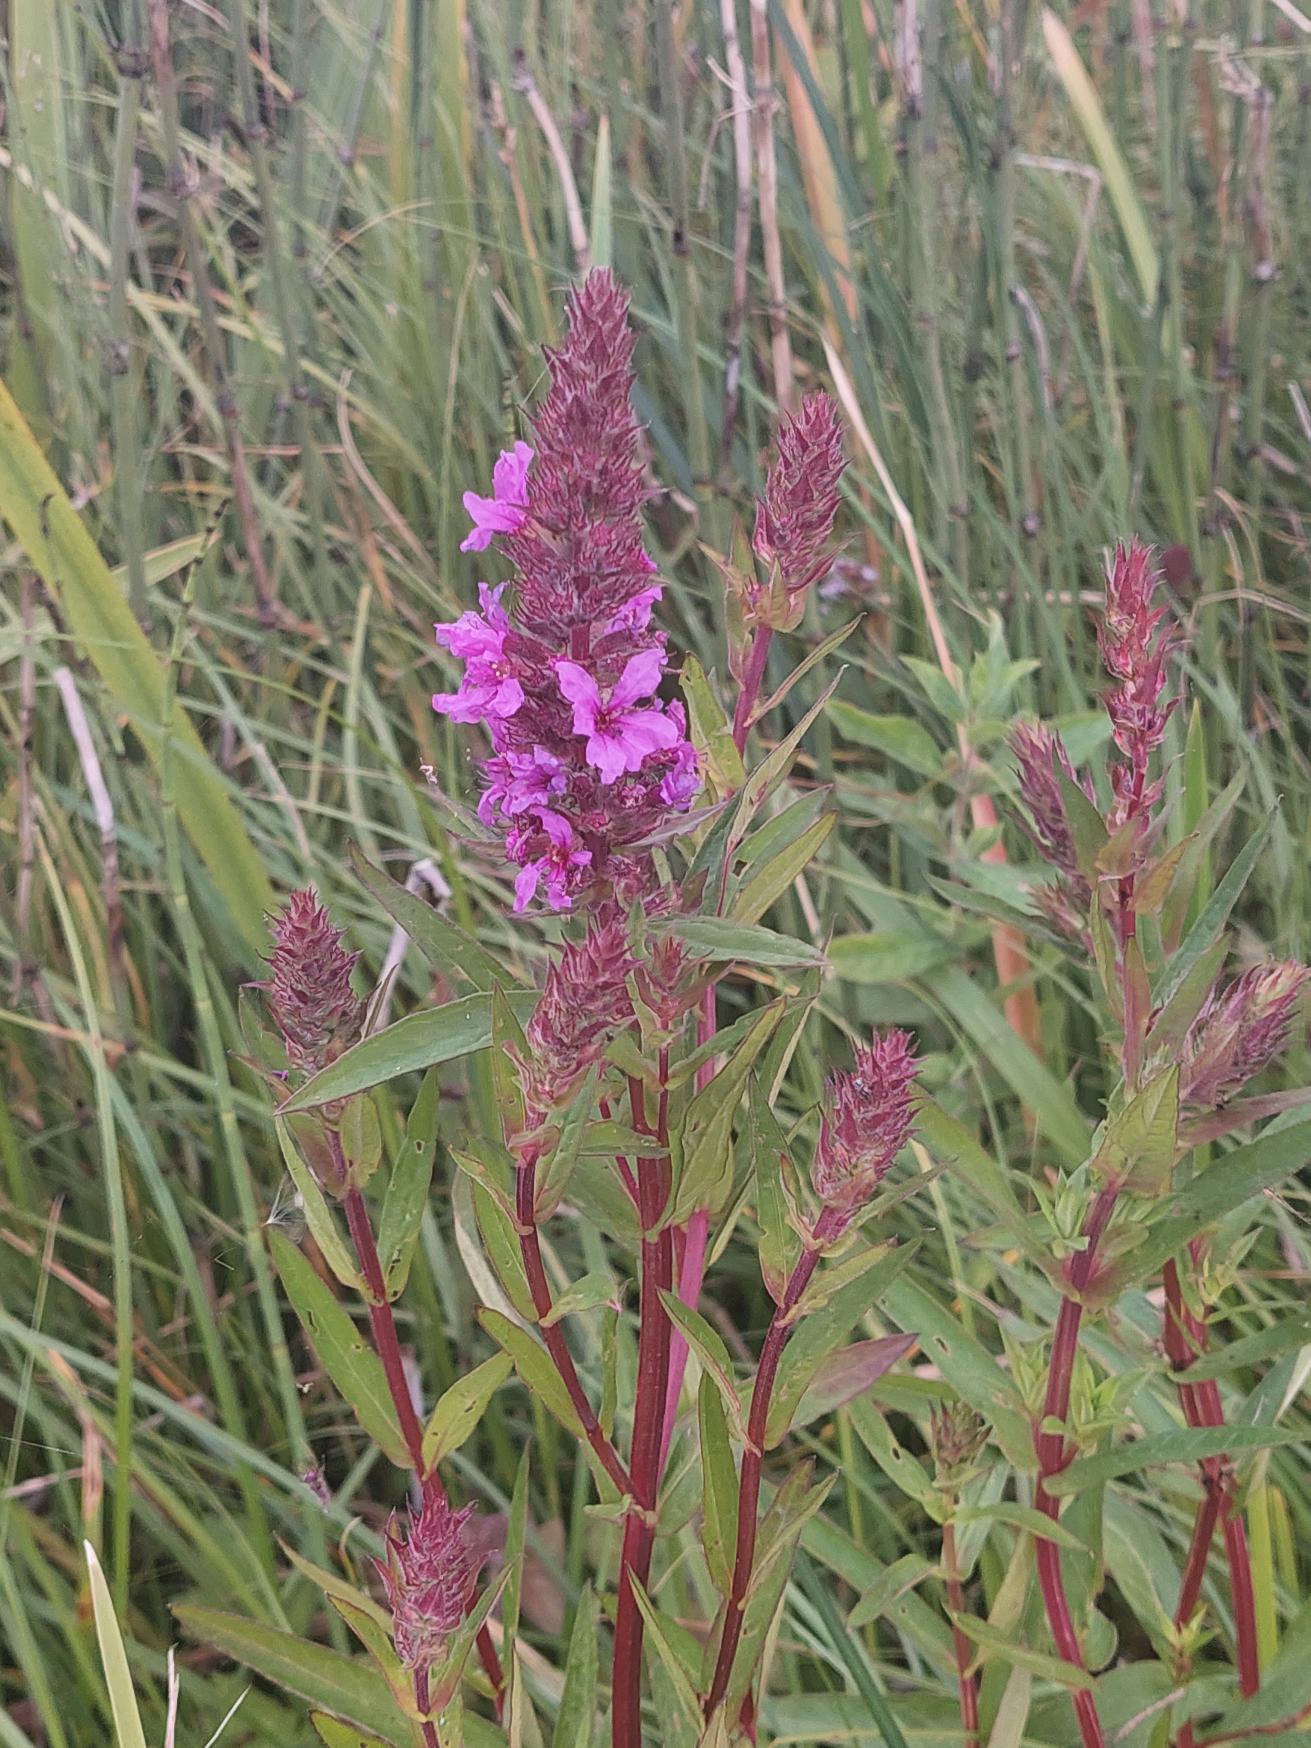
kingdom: Plantae
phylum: Tracheophyta
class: Magnoliopsida
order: Myrtales
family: Lythraceae
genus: Lythrum
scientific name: Lythrum salicaria
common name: Kattehale
